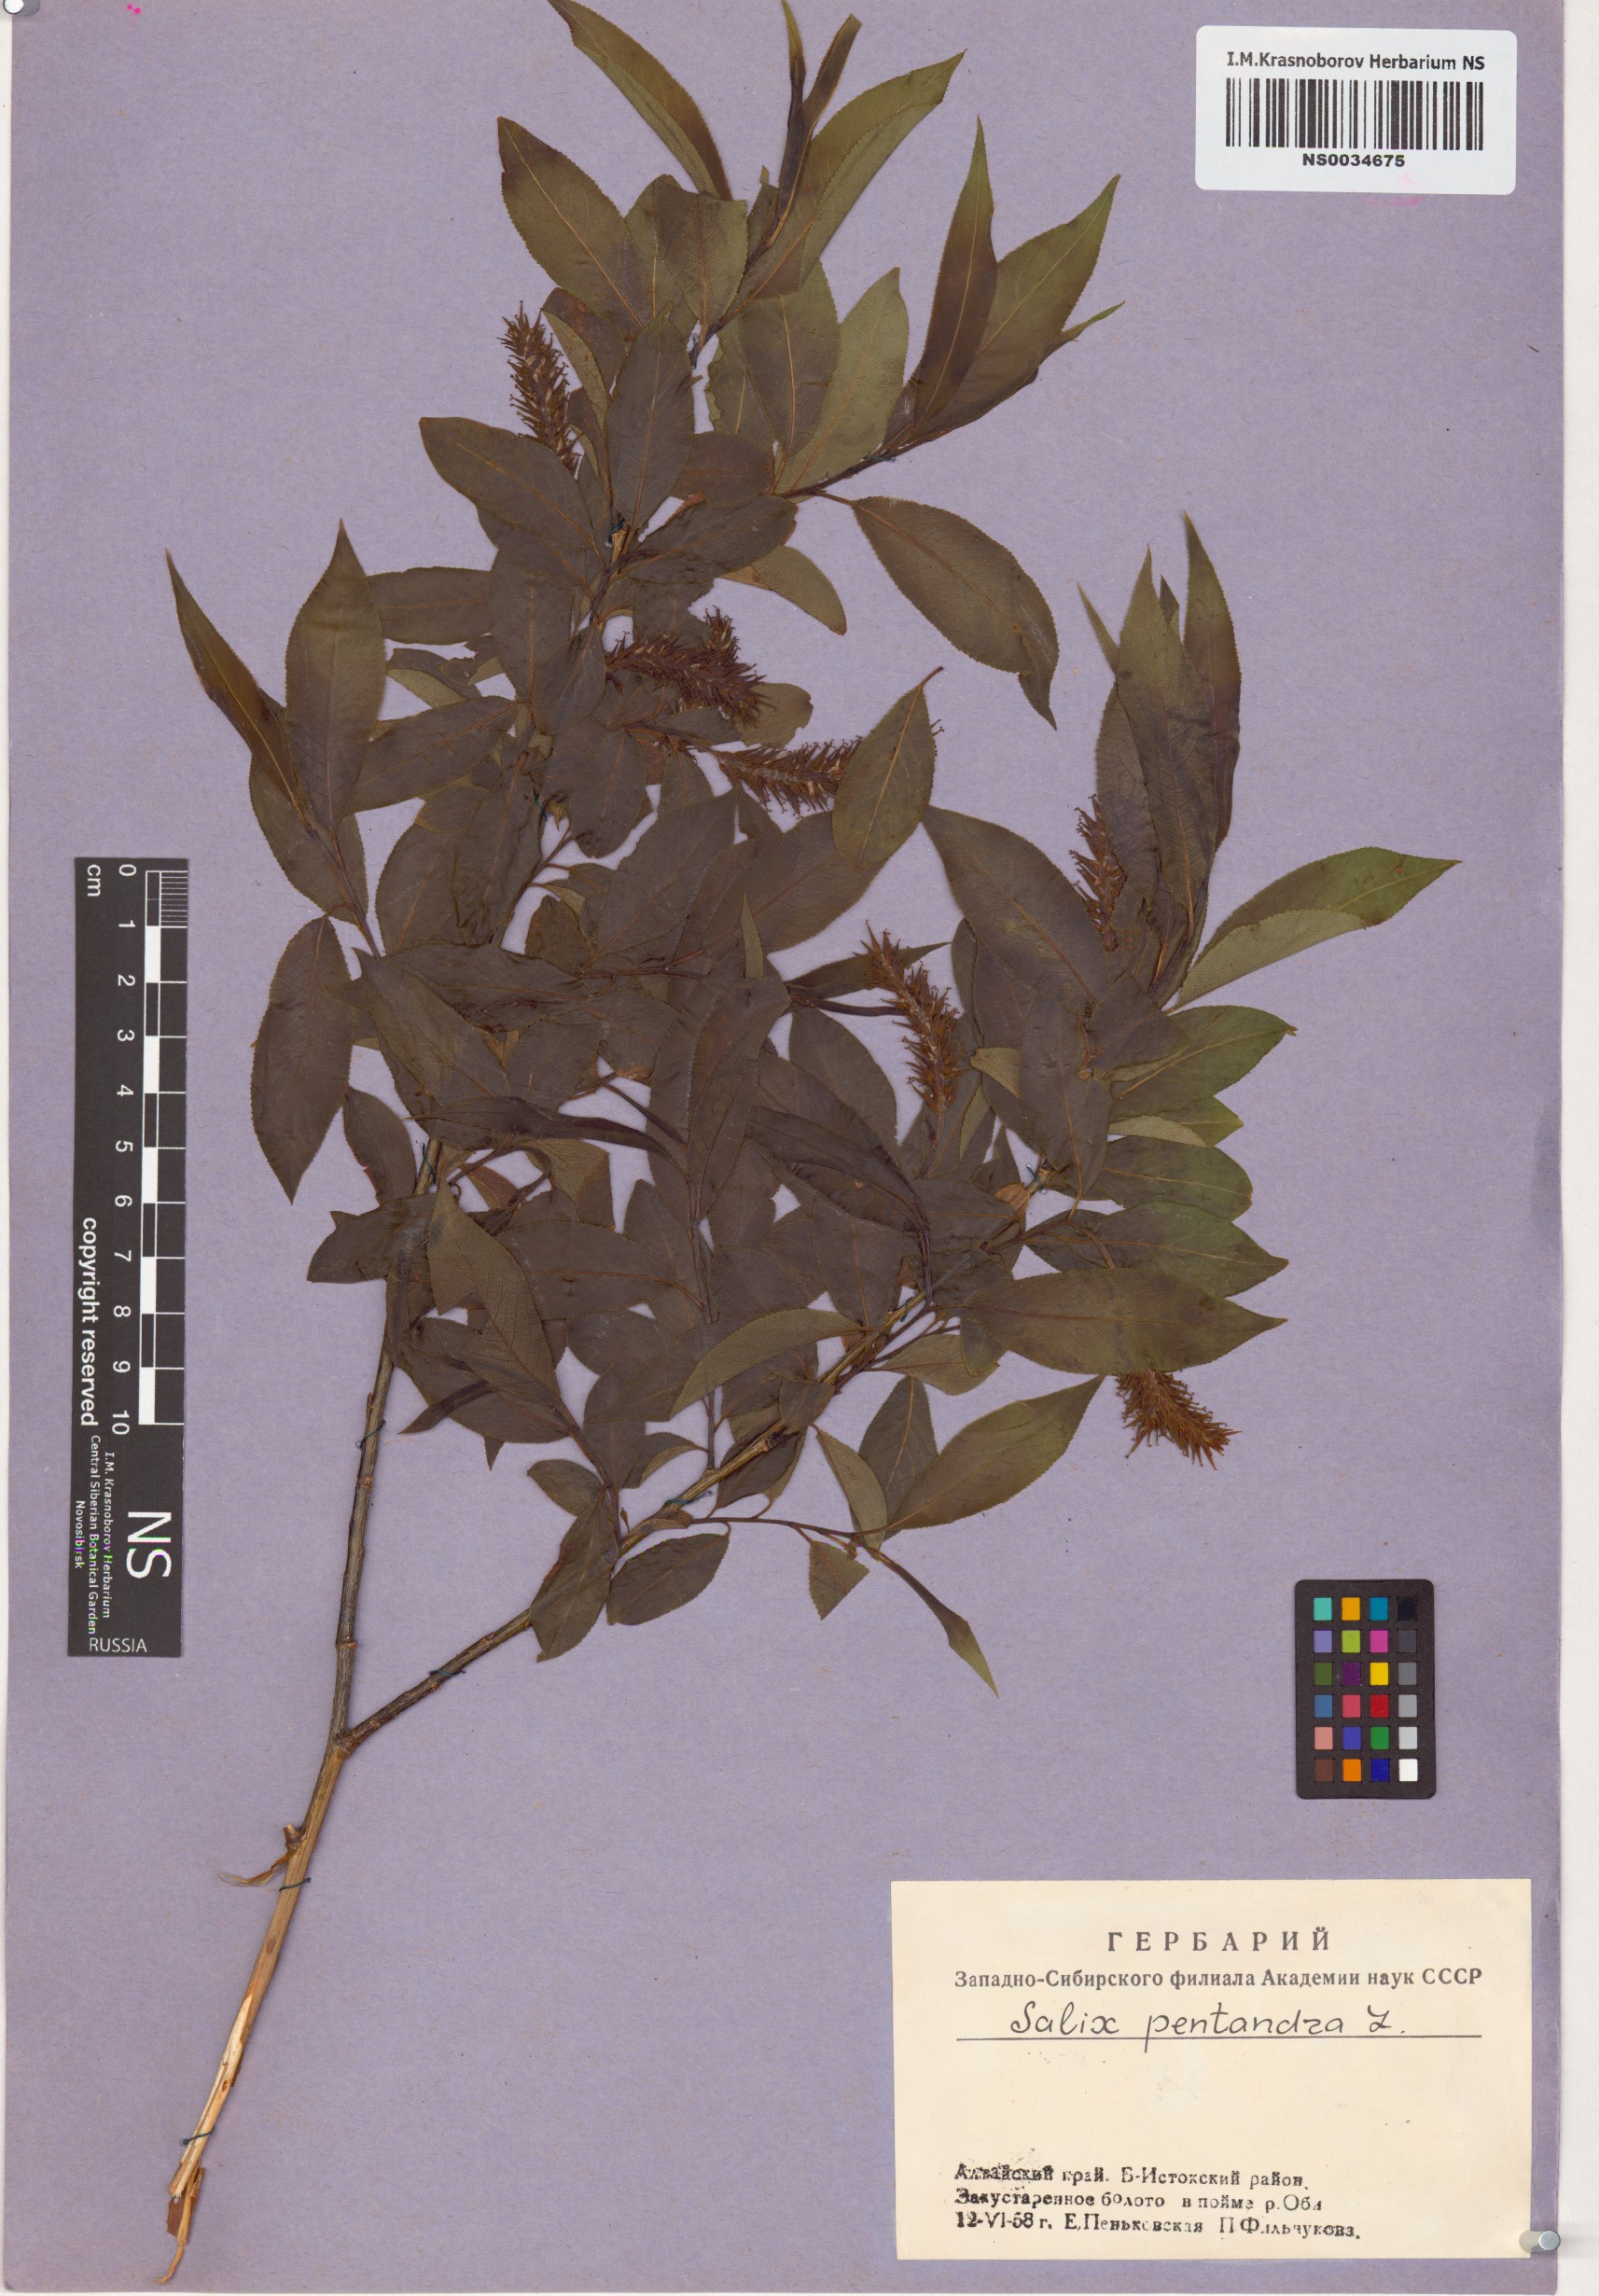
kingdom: Plantae
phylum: Tracheophyta
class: Magnoliopsida
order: Malpighiales
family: Salicaceae
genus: Salix
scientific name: Salix pentandra
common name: Bay willow
